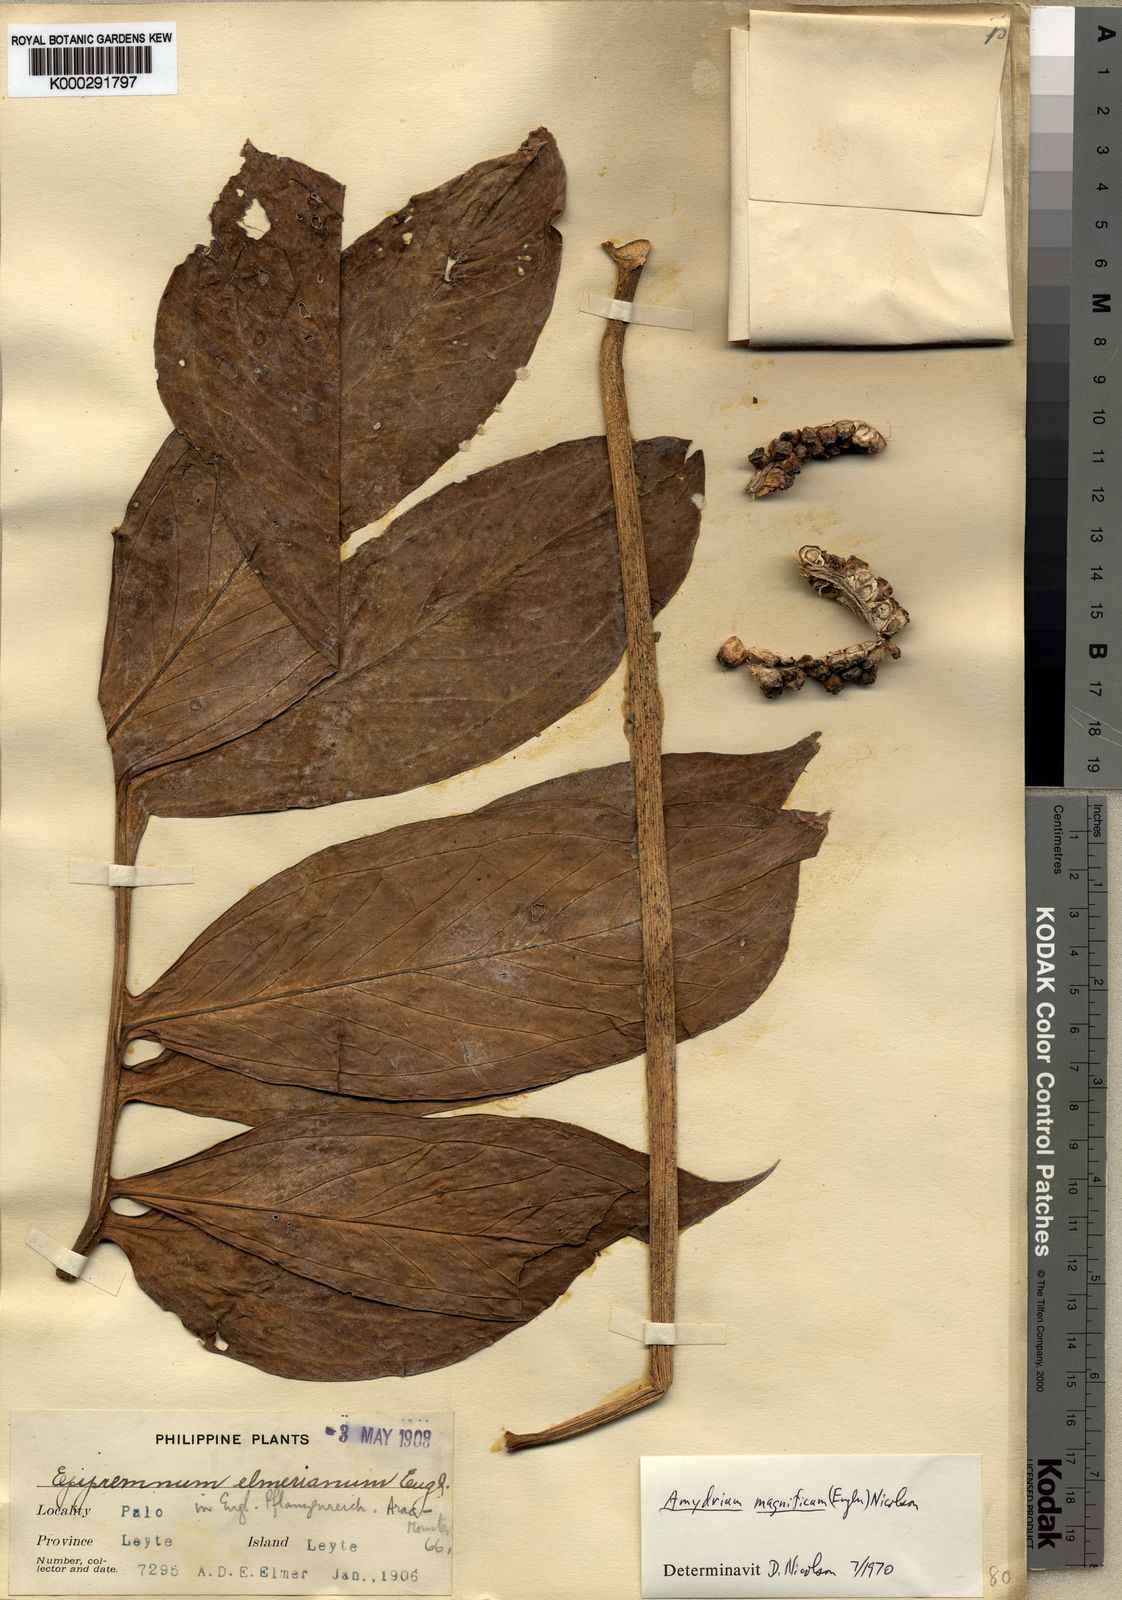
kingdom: Plantae
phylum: Tracheophyta
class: Liliopsida
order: Alismatales
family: Araceae
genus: Amydrium
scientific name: Amydrium zippelianum
